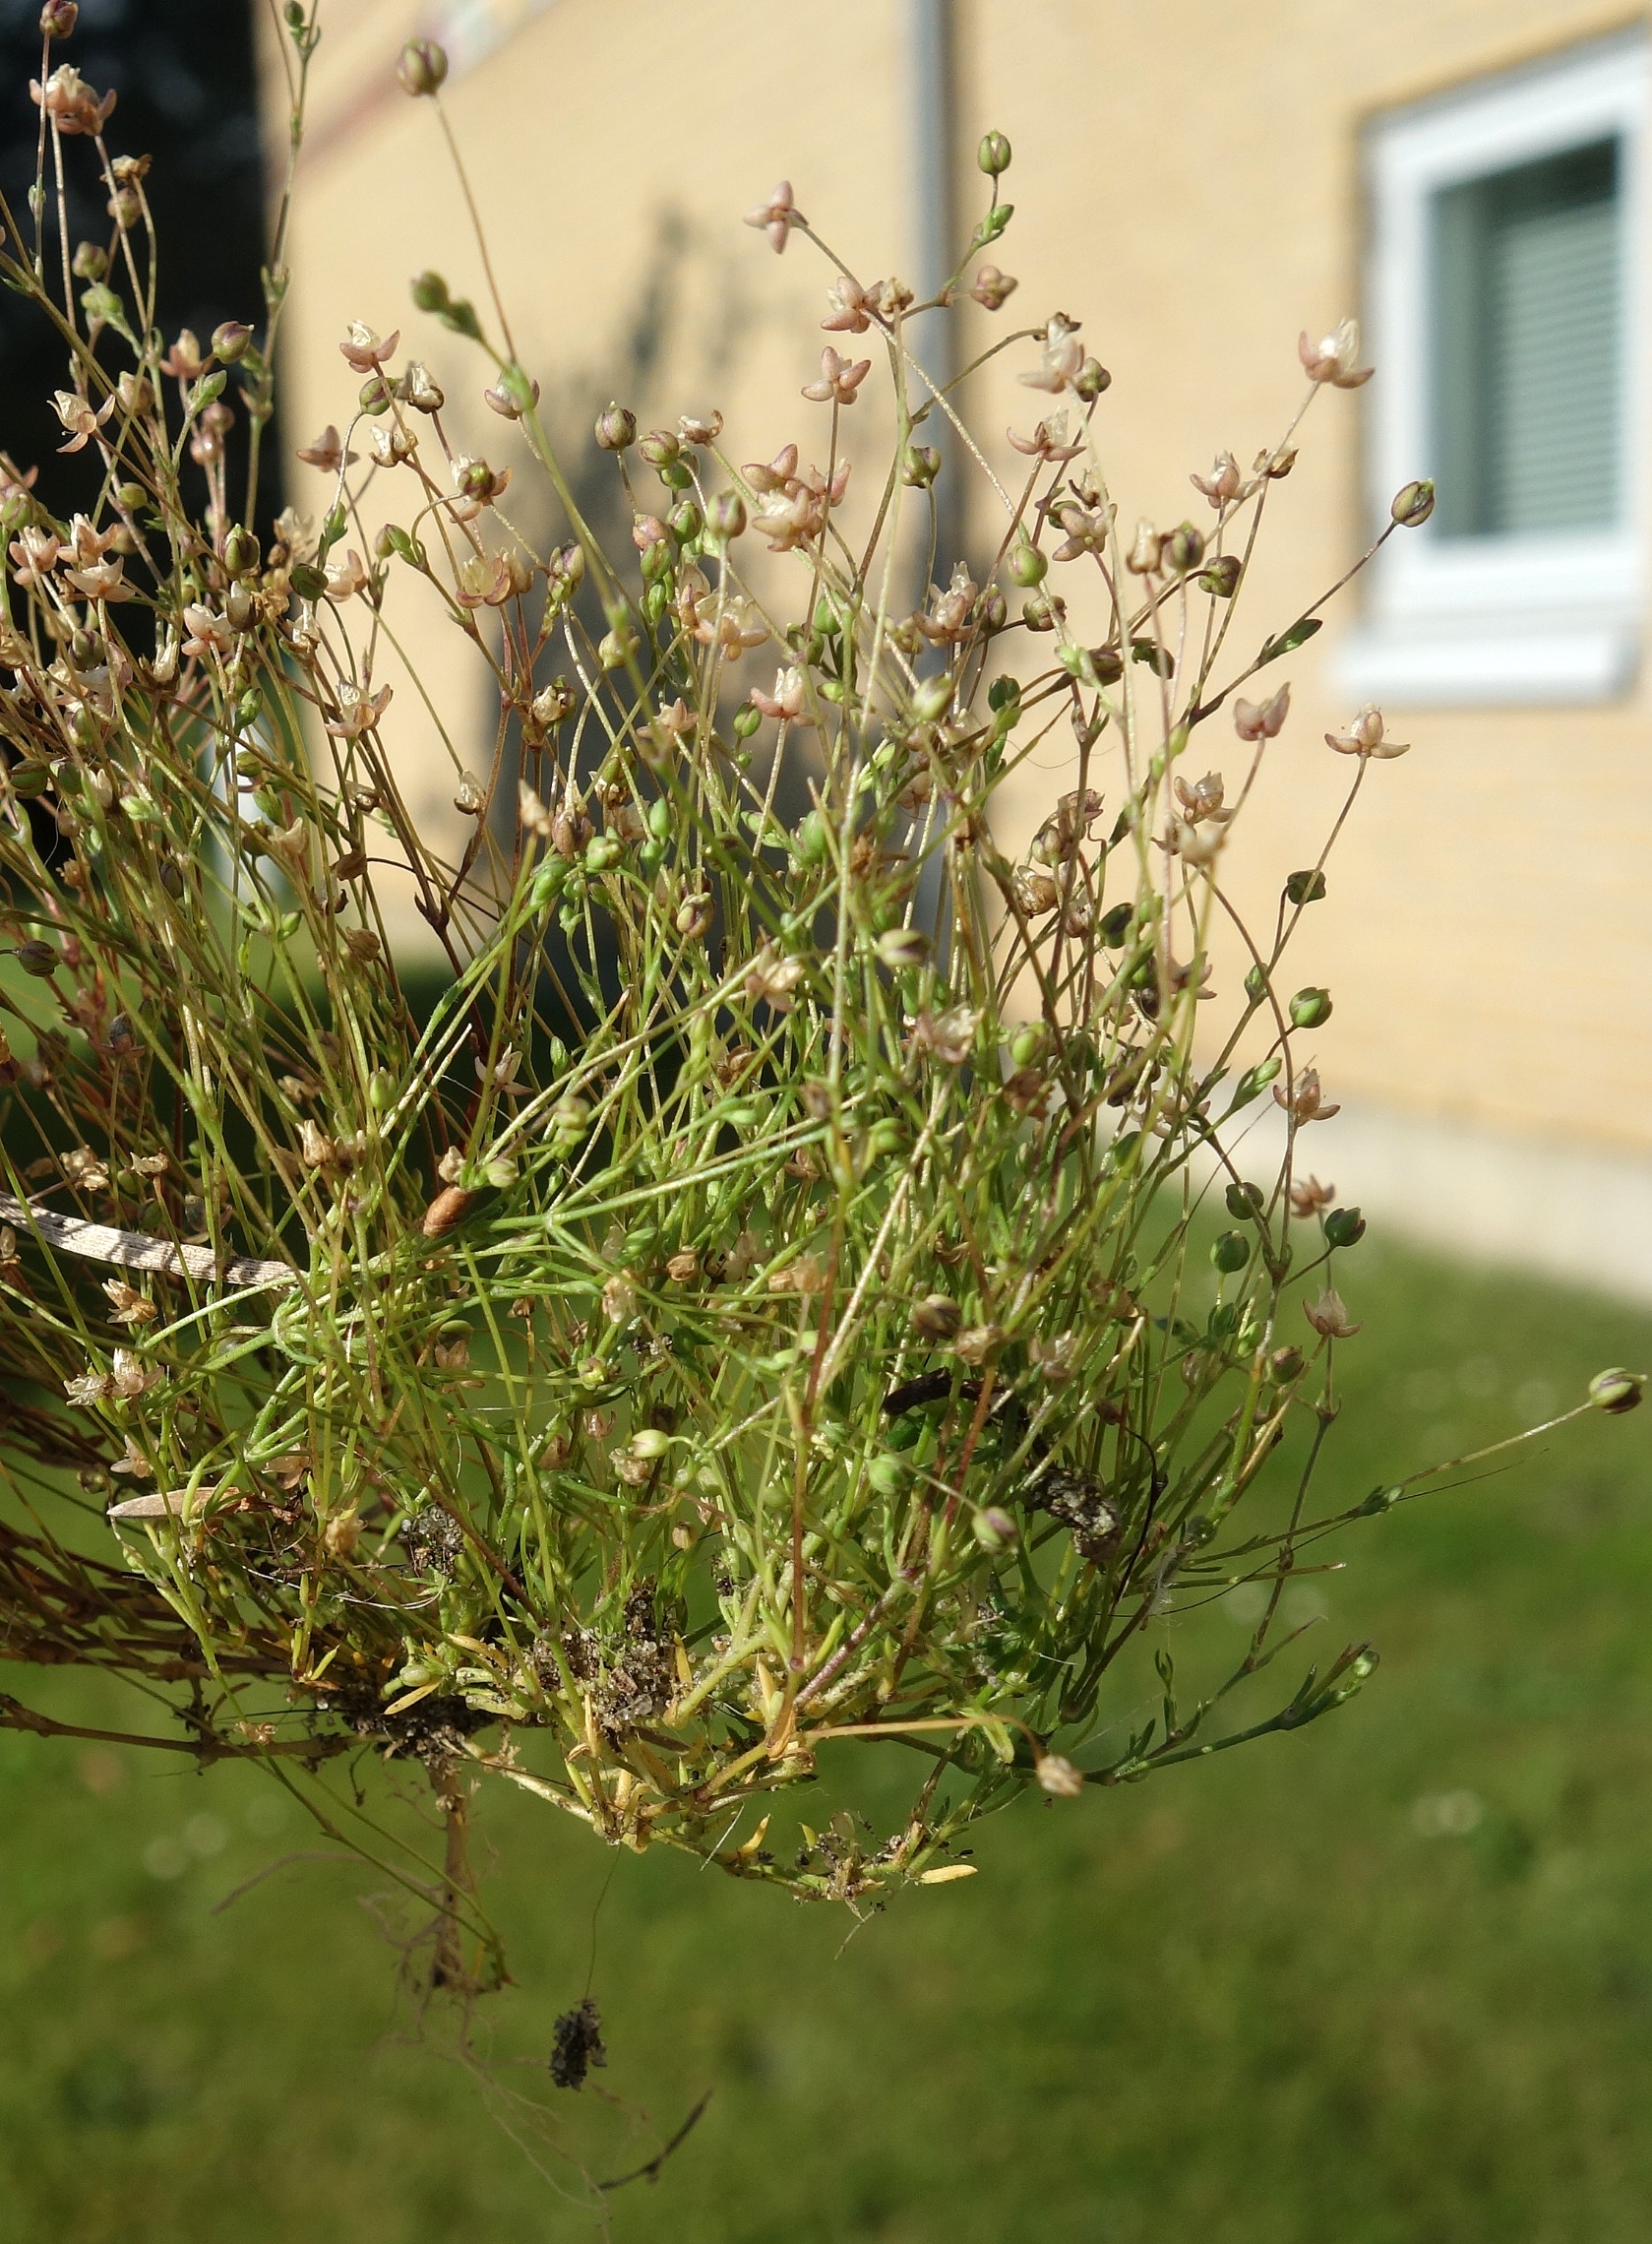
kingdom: Plantae
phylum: Tracheophyta
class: Magnoliopsida
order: Caryophyllales
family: Caryophyllaceae
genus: Sagina
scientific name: Sagina micropetala
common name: Håret firling
